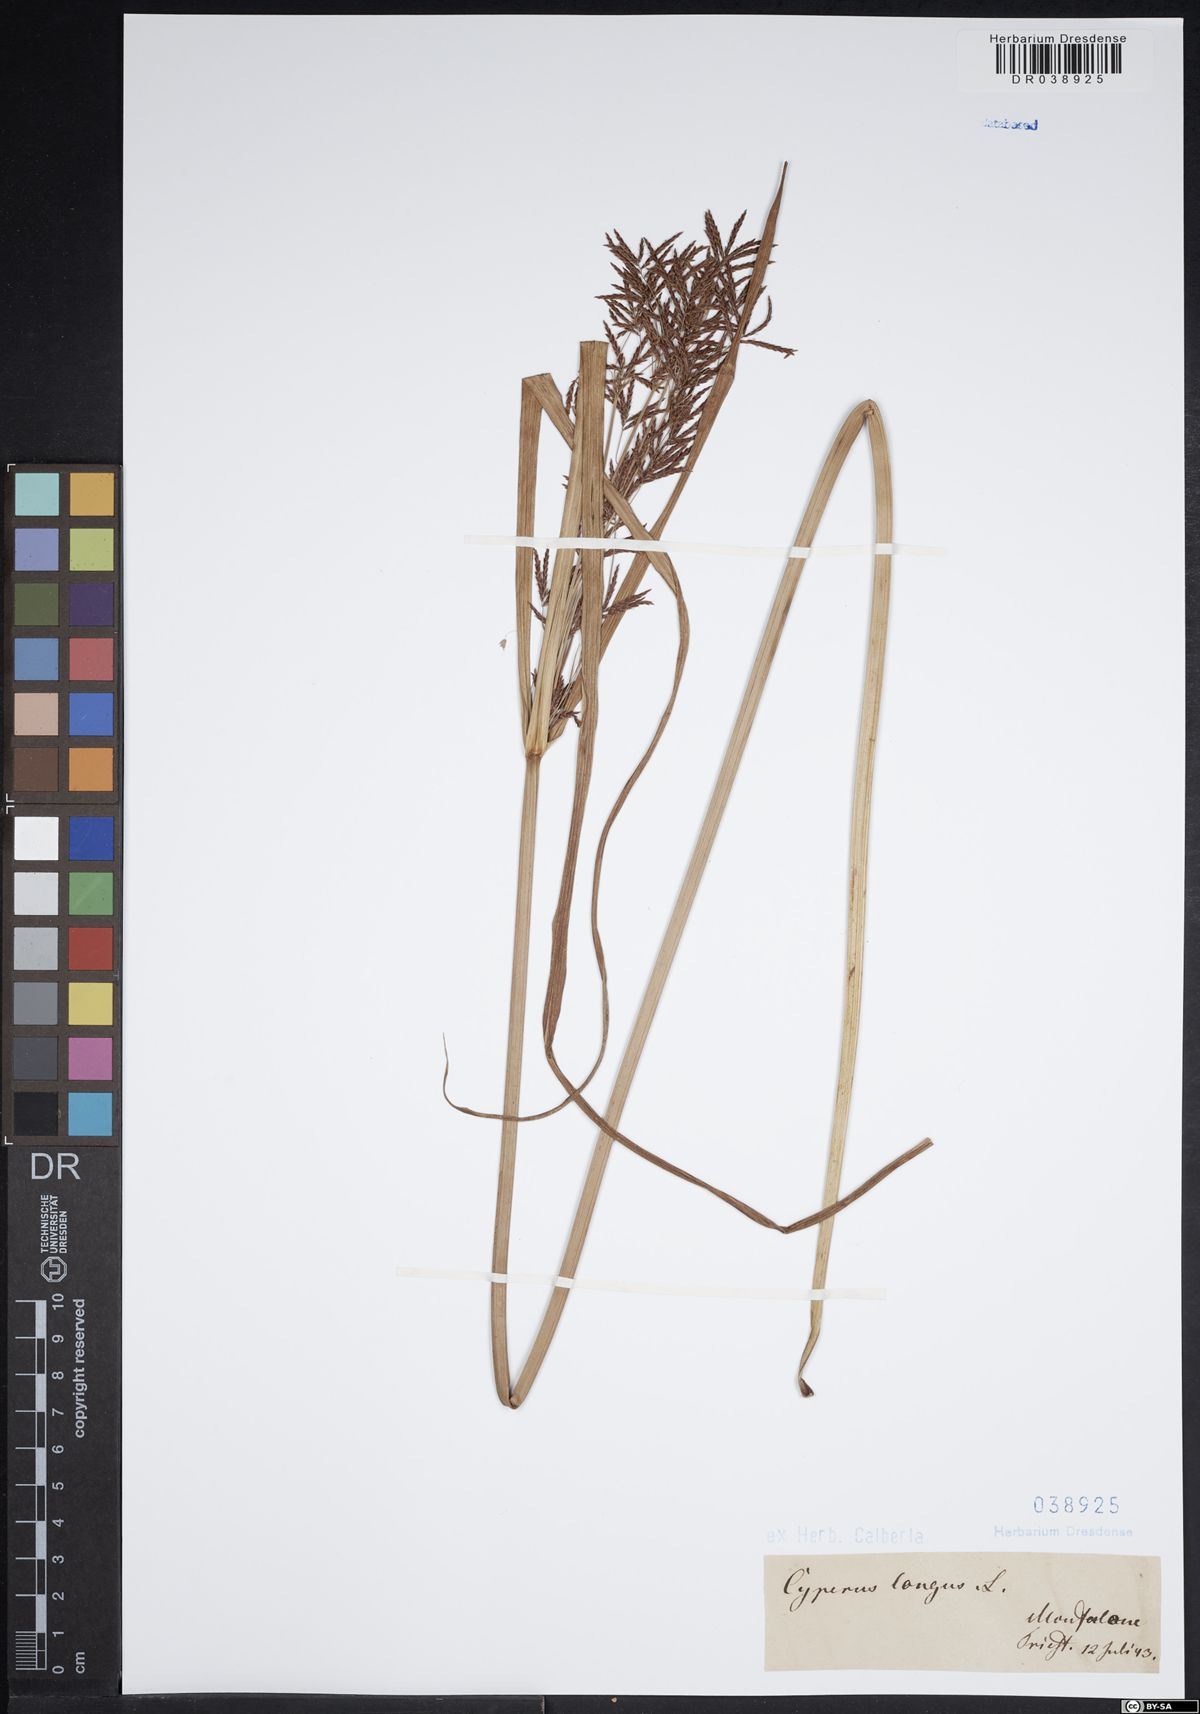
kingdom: Plantae
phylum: Tracheophyta
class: Liliopsida
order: Poales
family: Cyperaceae
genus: Cyperus
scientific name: Cyperus longus
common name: Galingale
